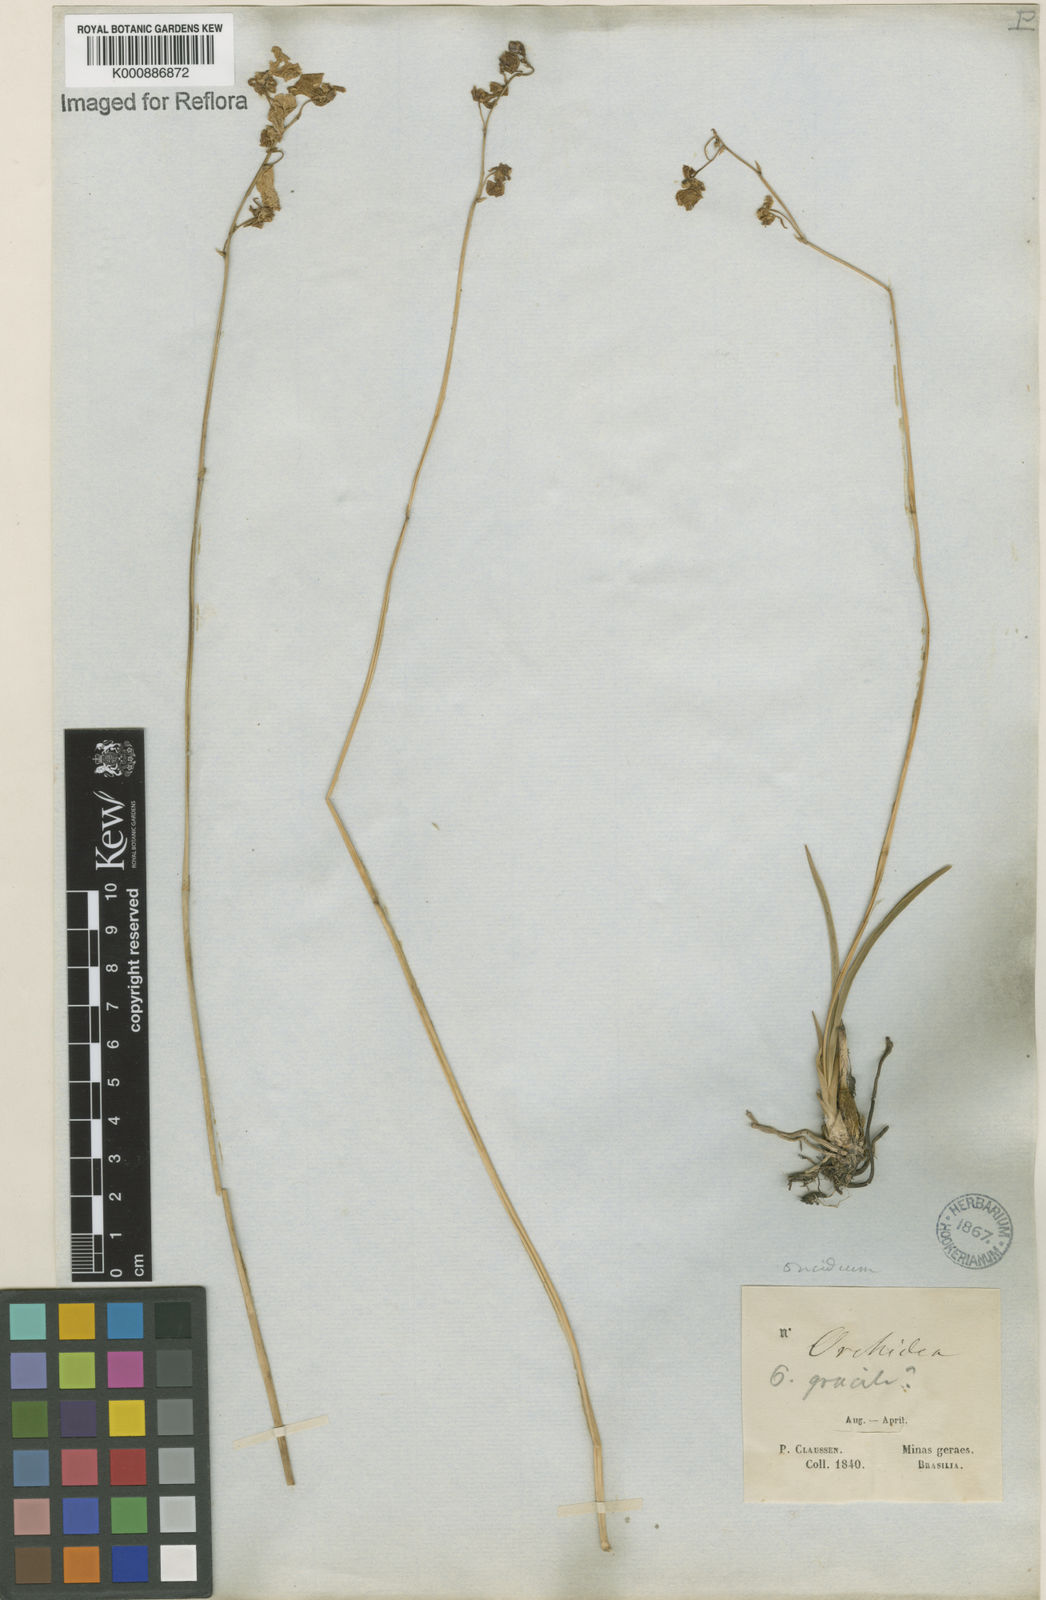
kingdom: Plantae
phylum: Tracheophyta
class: Liliopsida
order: Asparagales
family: Orchidaceae
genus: Gomesa
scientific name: Gomesa barbaceniae
